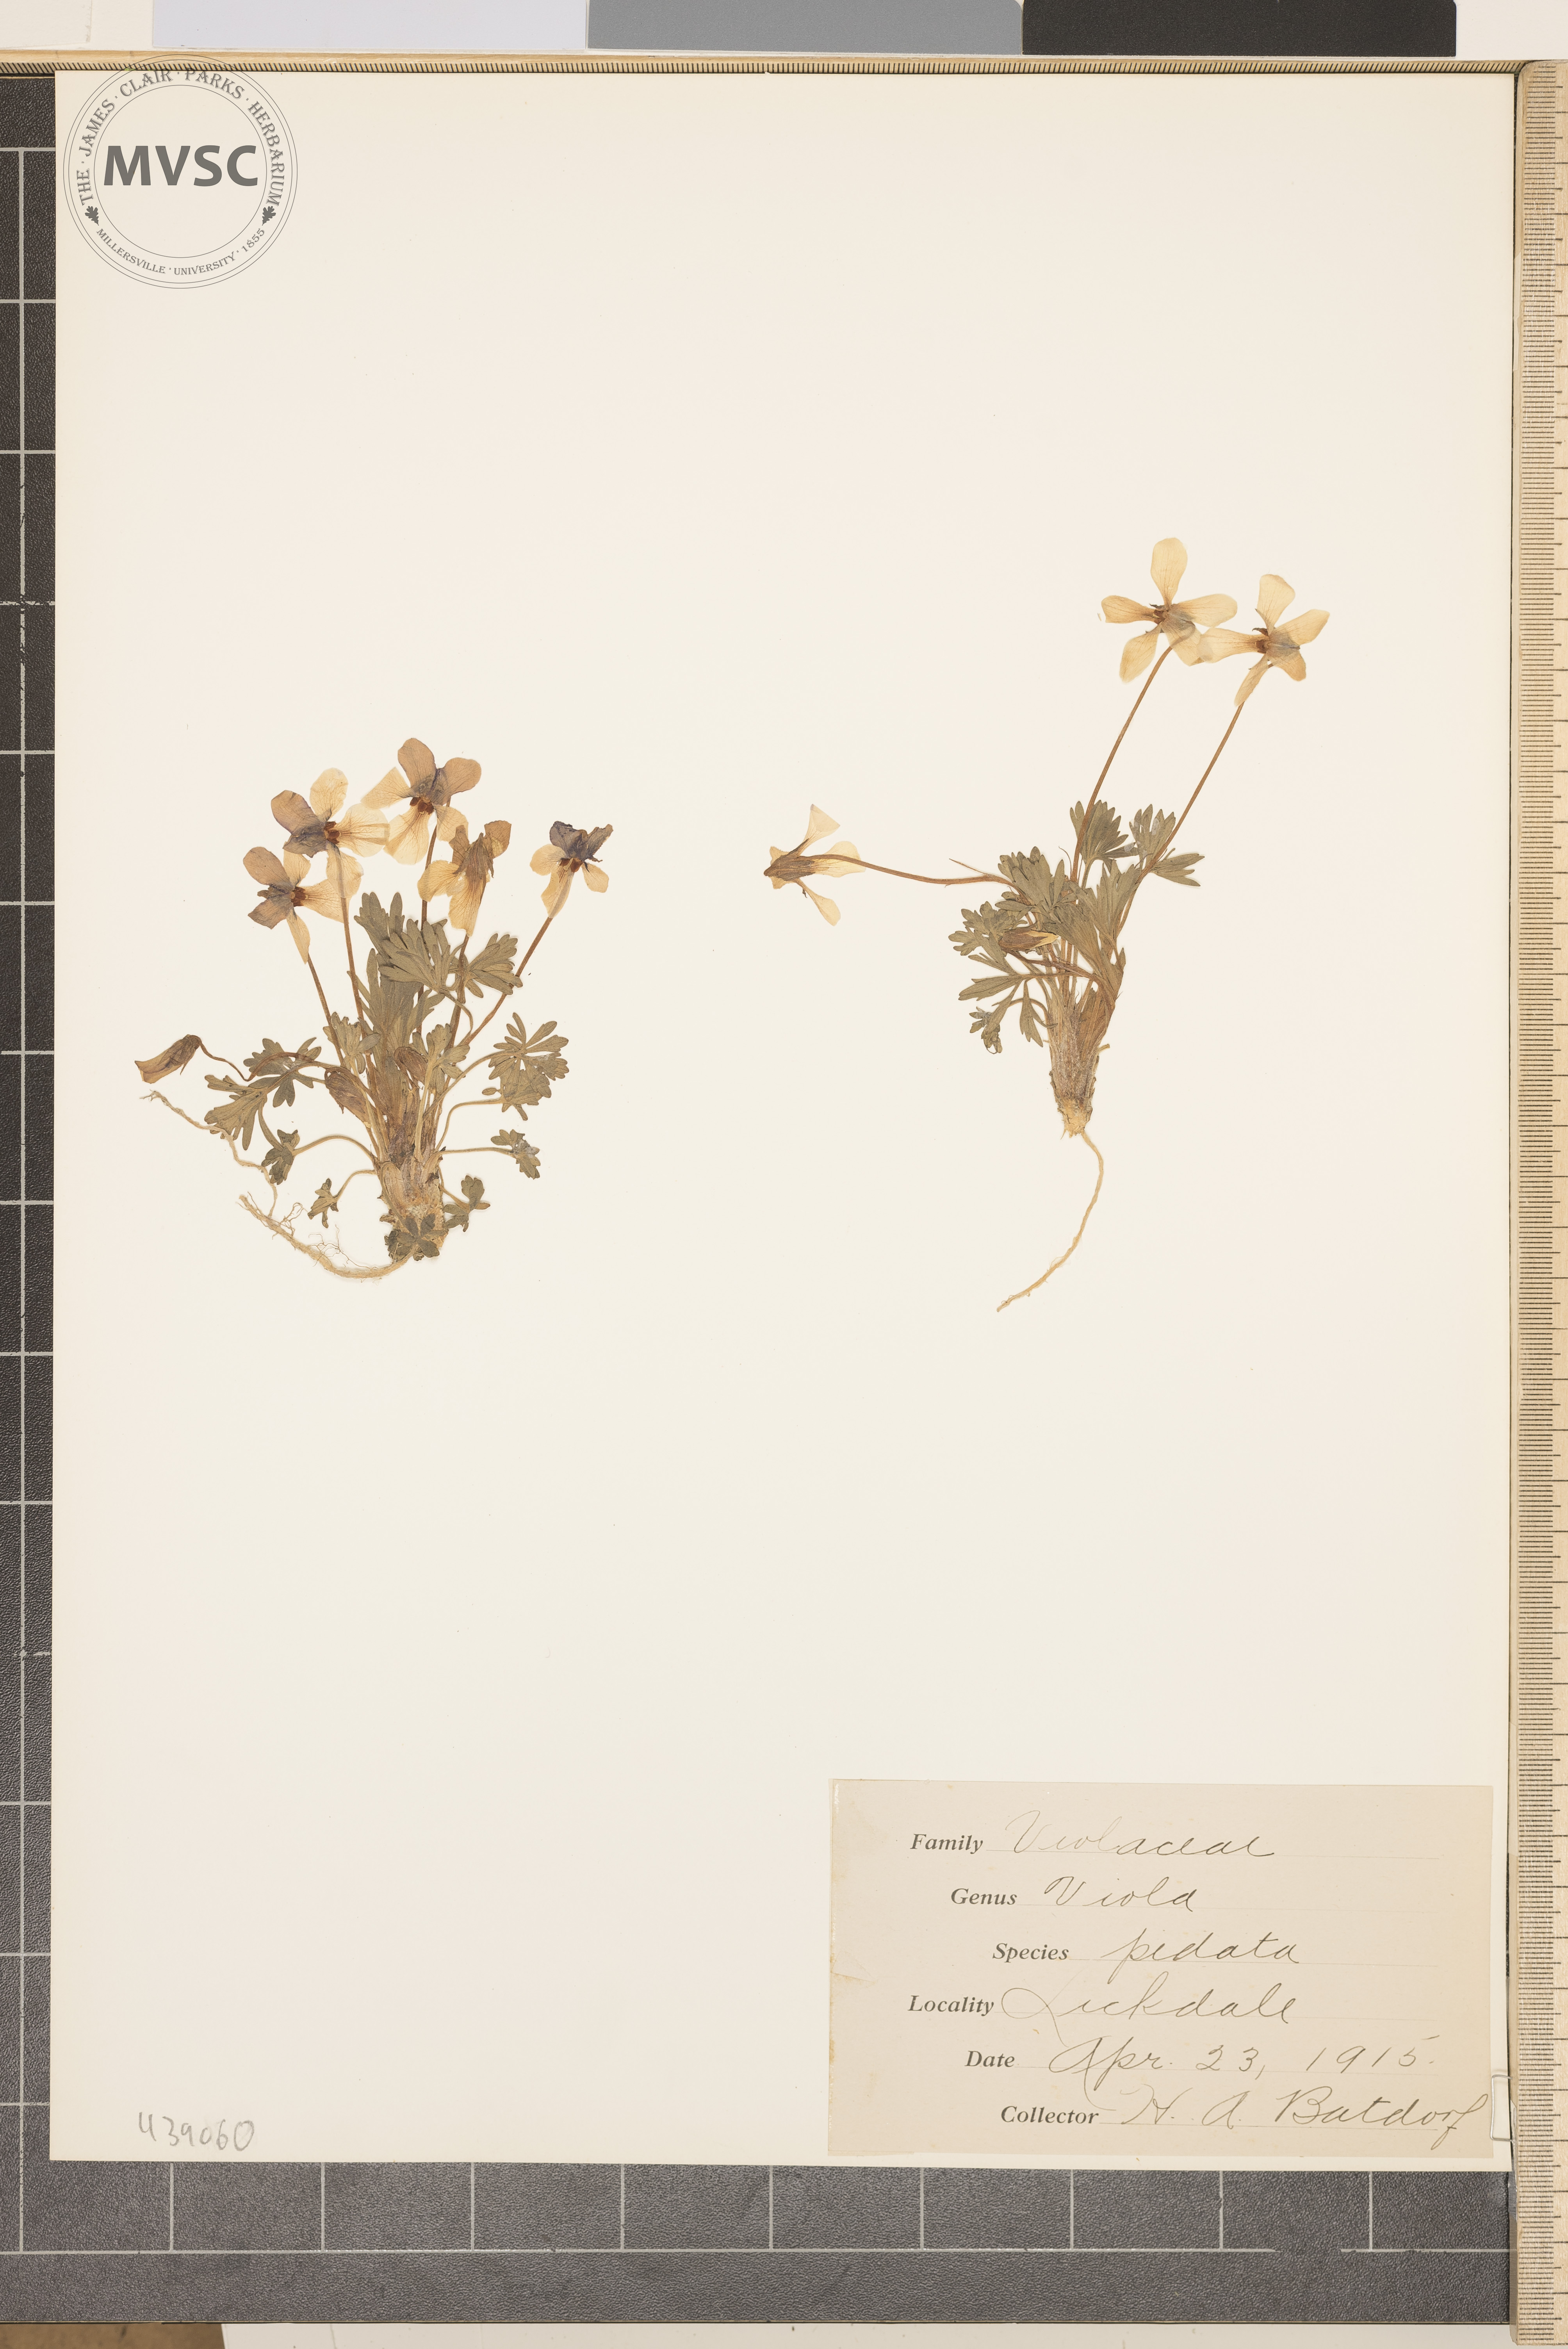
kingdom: Plantae
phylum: Tracheophyta
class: Magnoliopsida
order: Malpighiales
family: Violaceae
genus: Viola
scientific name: Viola pedata
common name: Pansy violet
